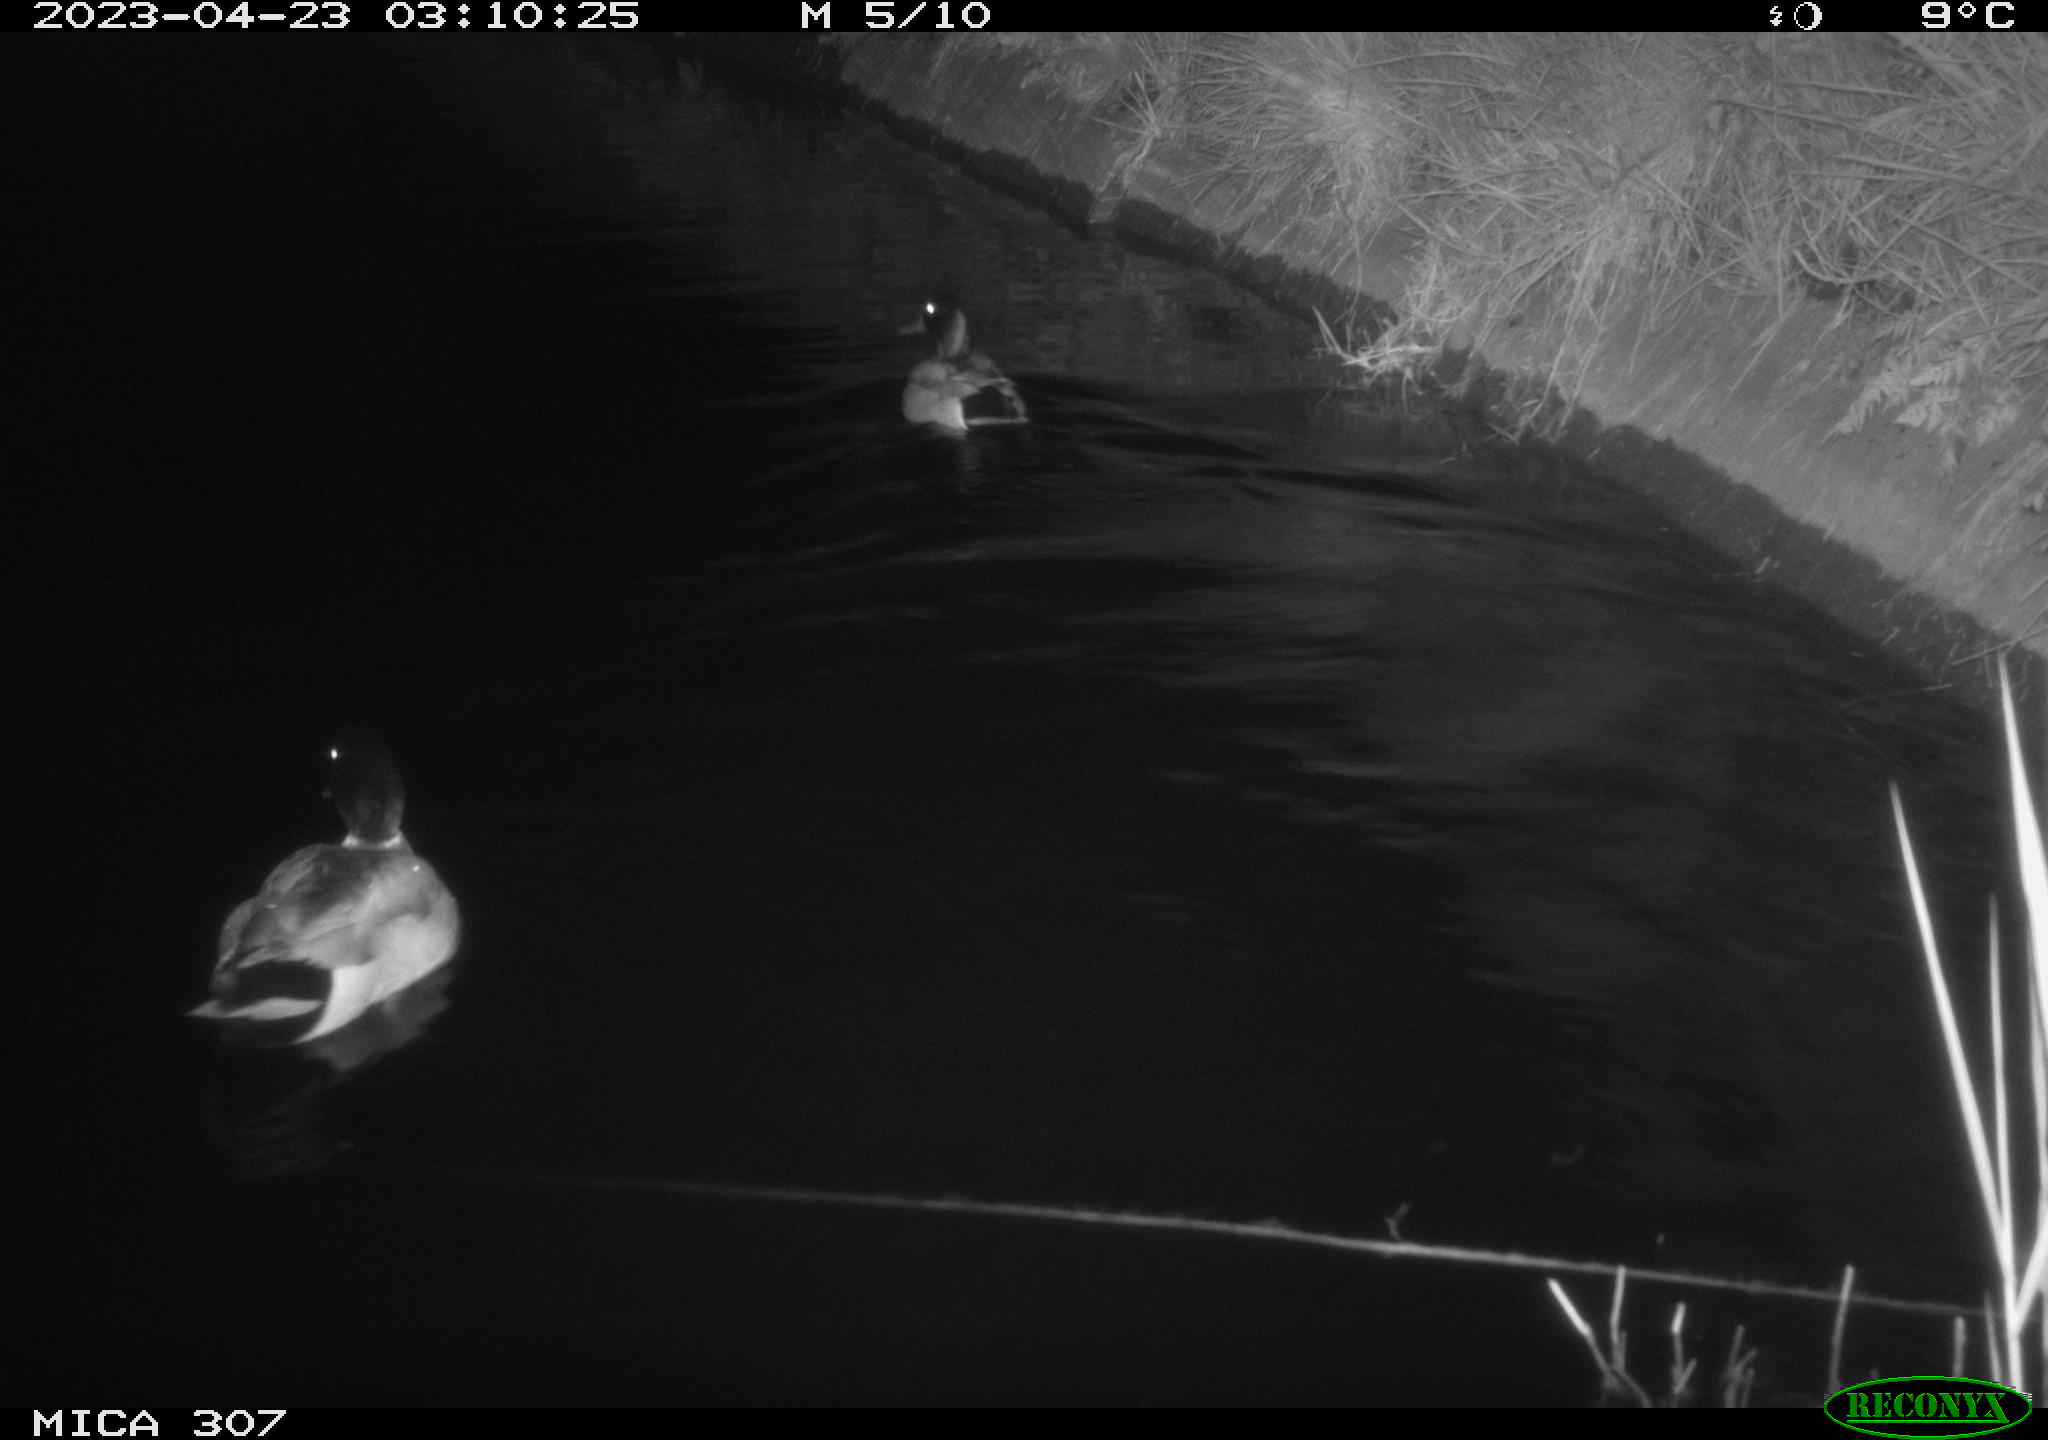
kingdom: Animalia
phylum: Chordata
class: Aves
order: Anseriformes
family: Anatidae
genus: Anas
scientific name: Anas
